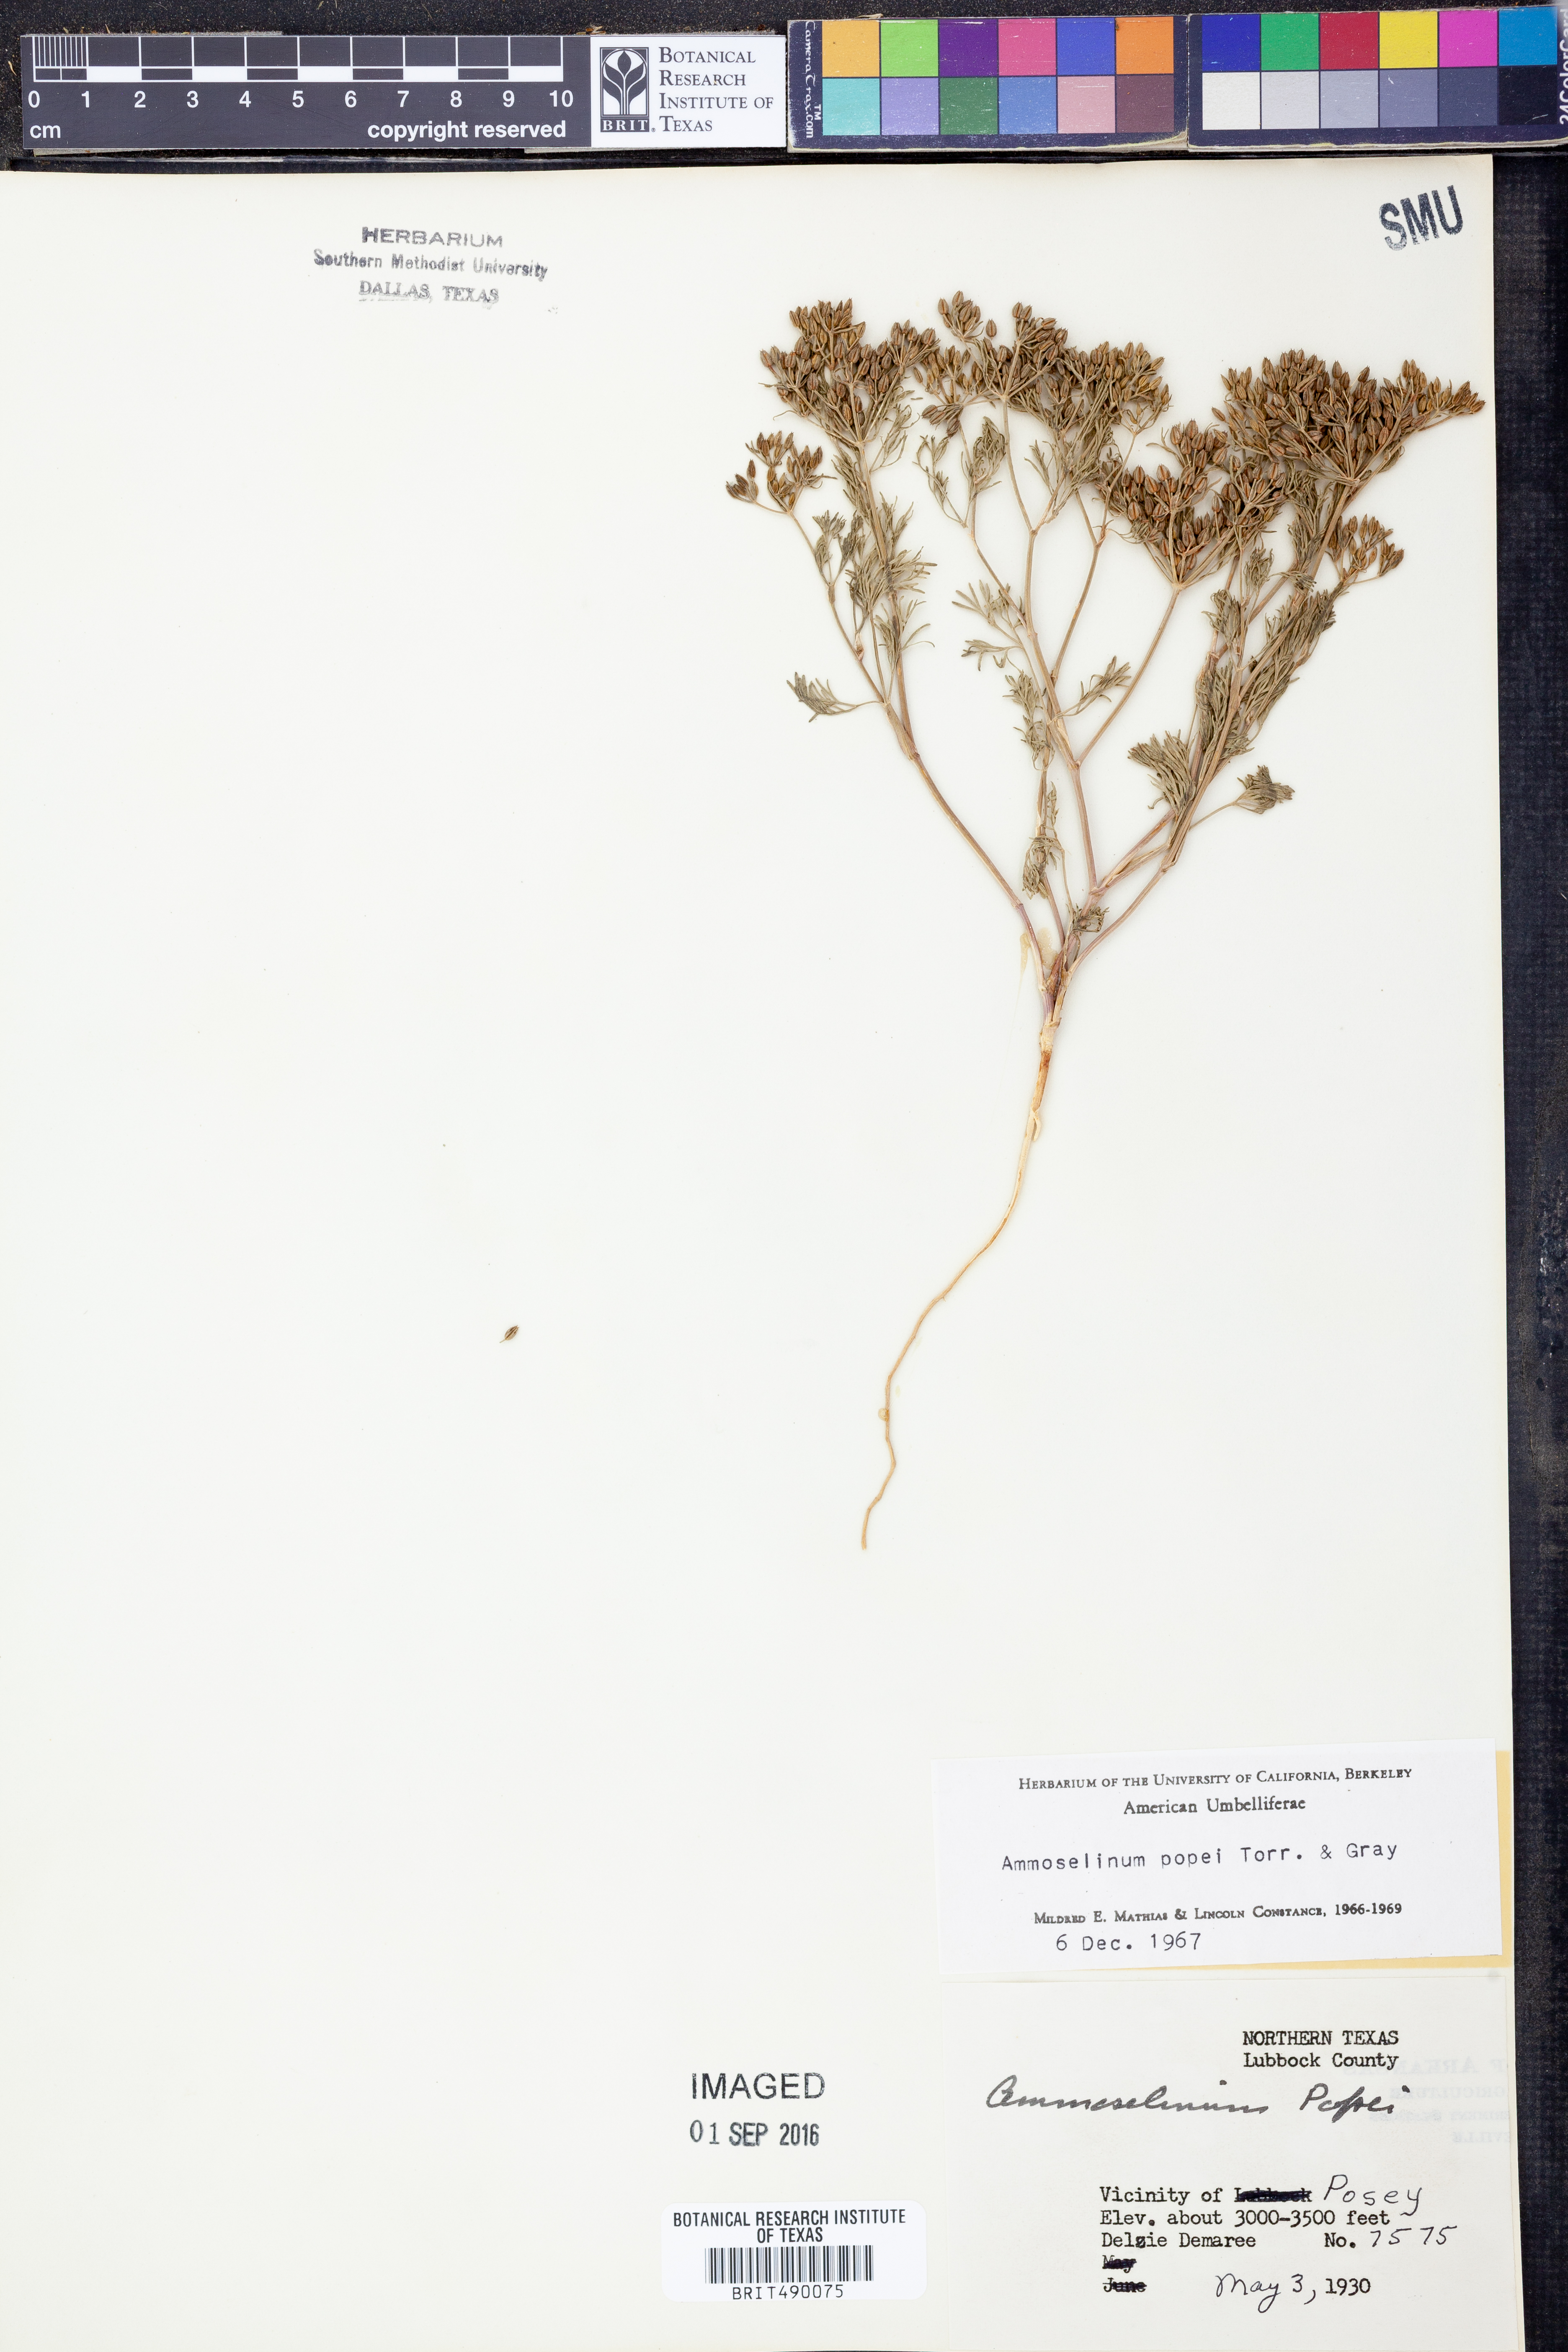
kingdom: Plantae
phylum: Tracheophyta
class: Magnoliopsida
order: Apiales
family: Apiaceae
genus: Ammoselinum
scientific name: Ammoselinum popei
